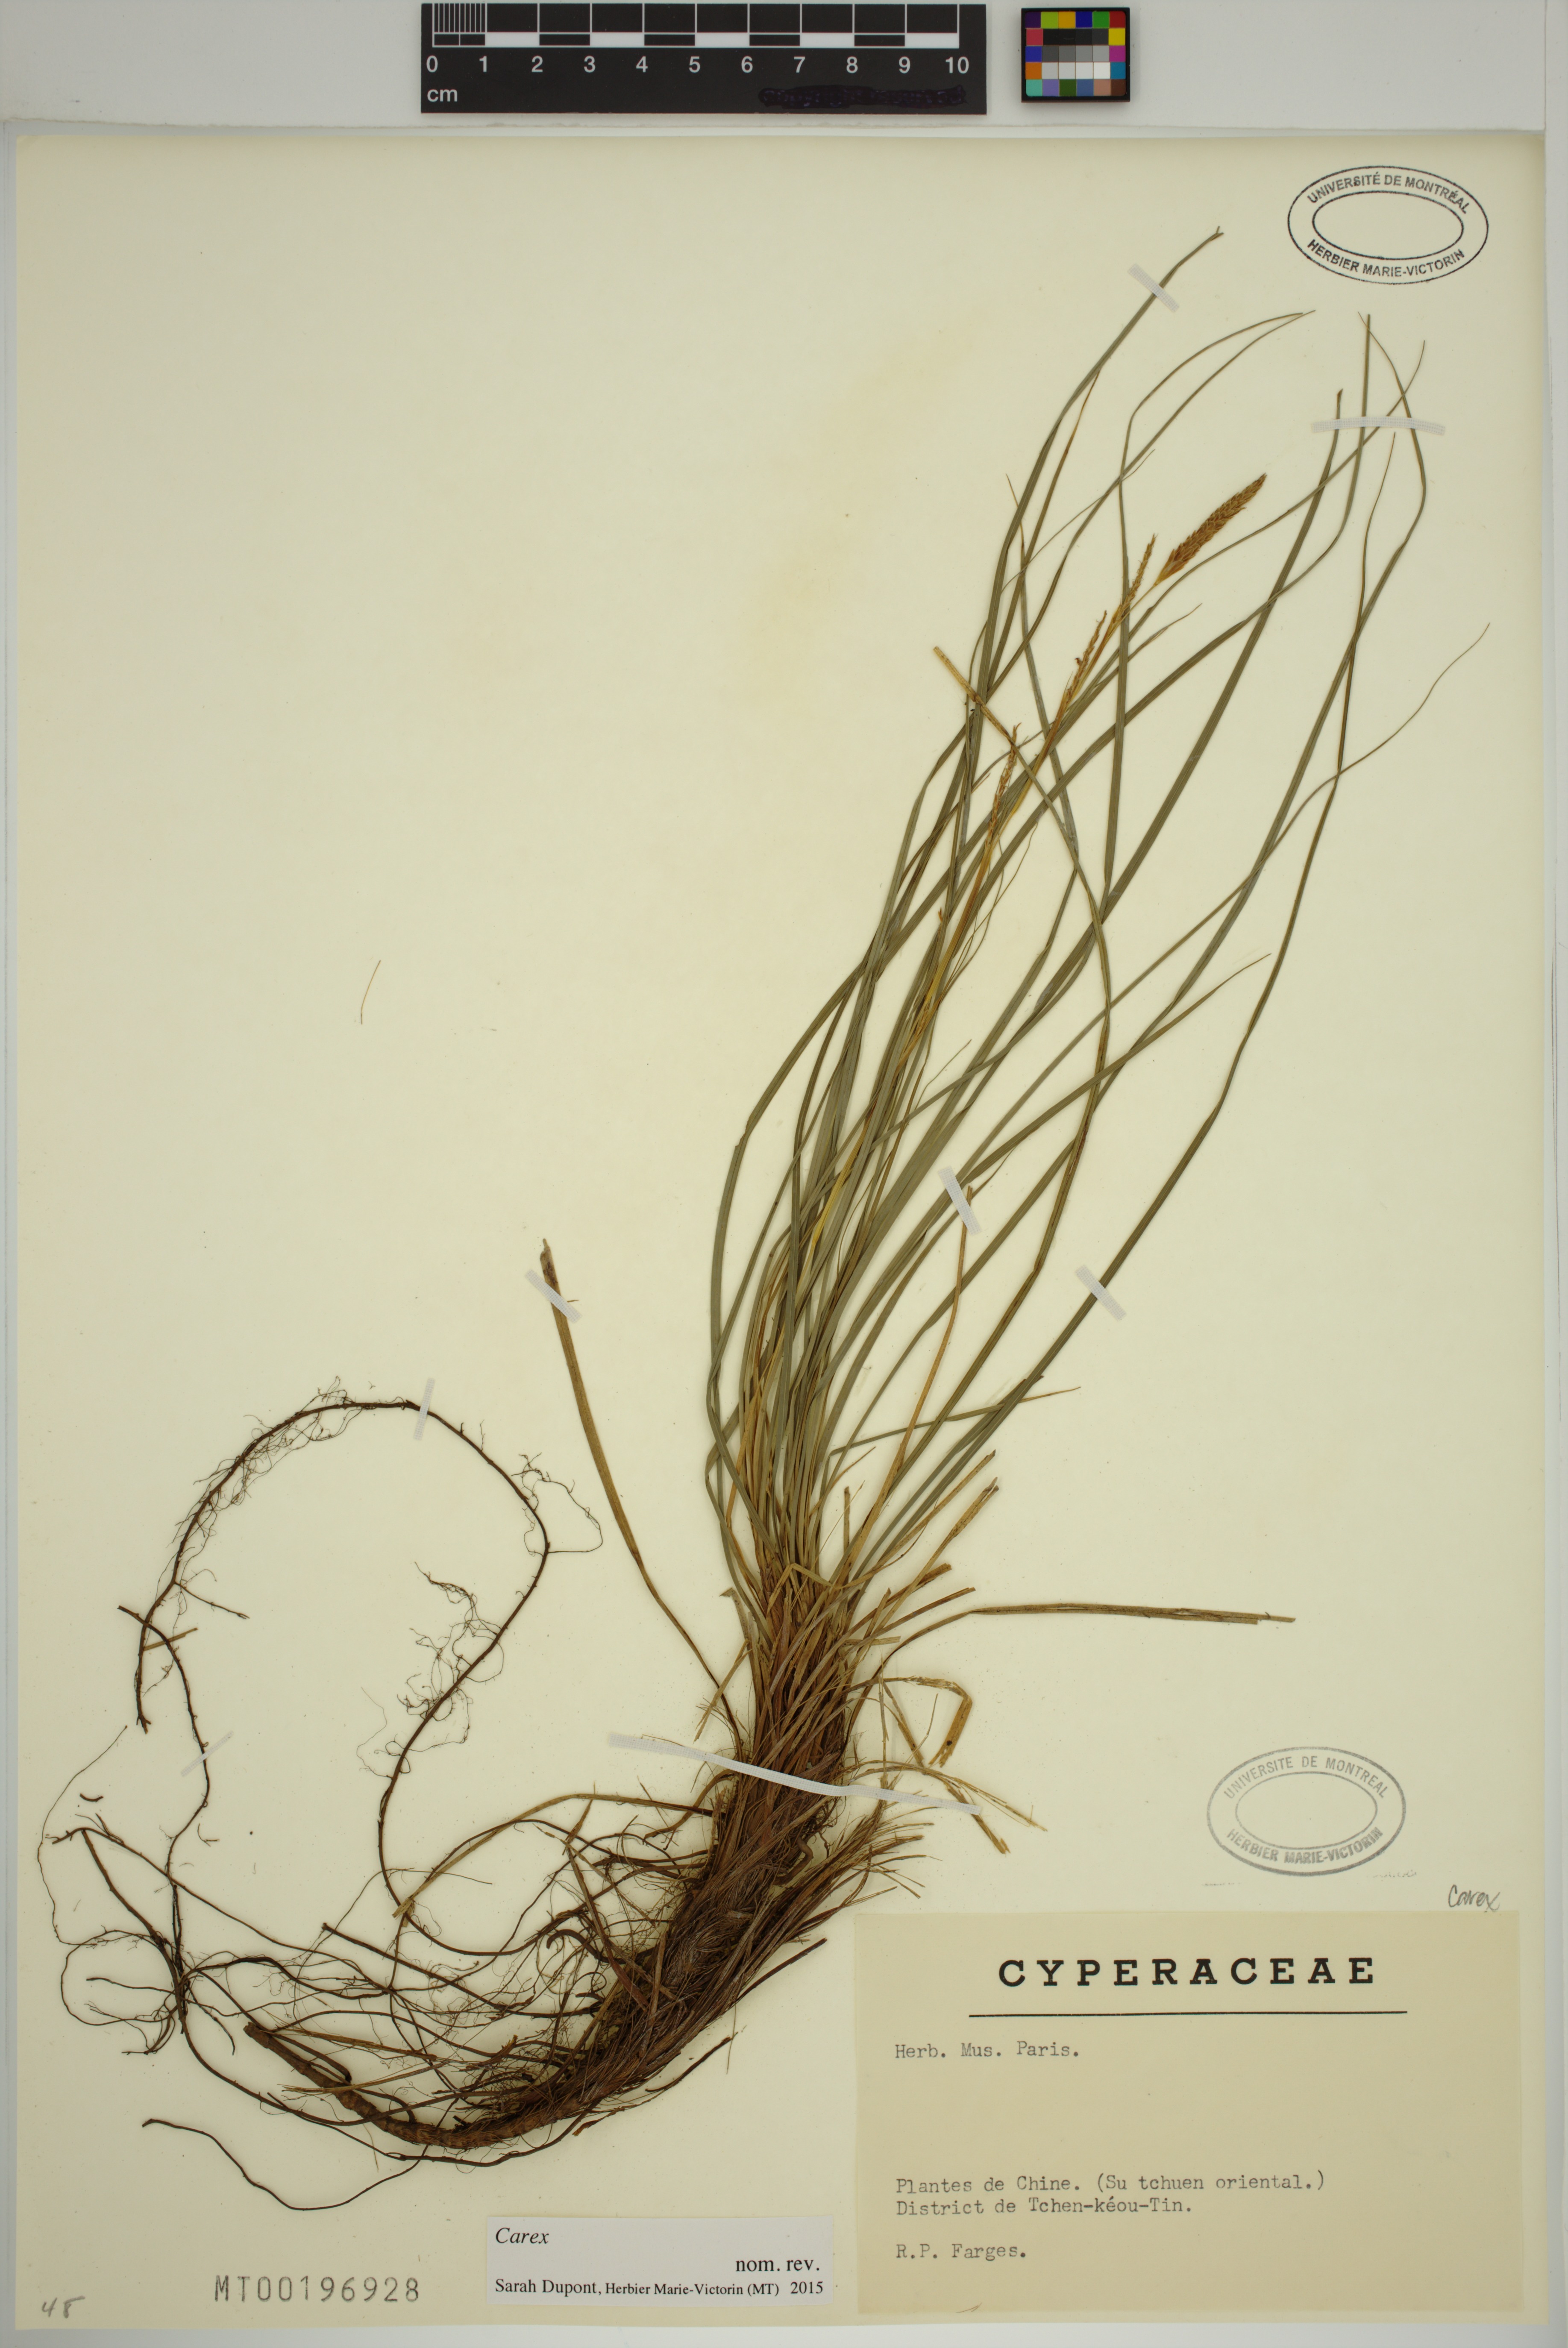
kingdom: Plantae
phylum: Tracheophyta
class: Liliopsida
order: Poales
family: Cyperaceae
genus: Carex
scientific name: Carex
